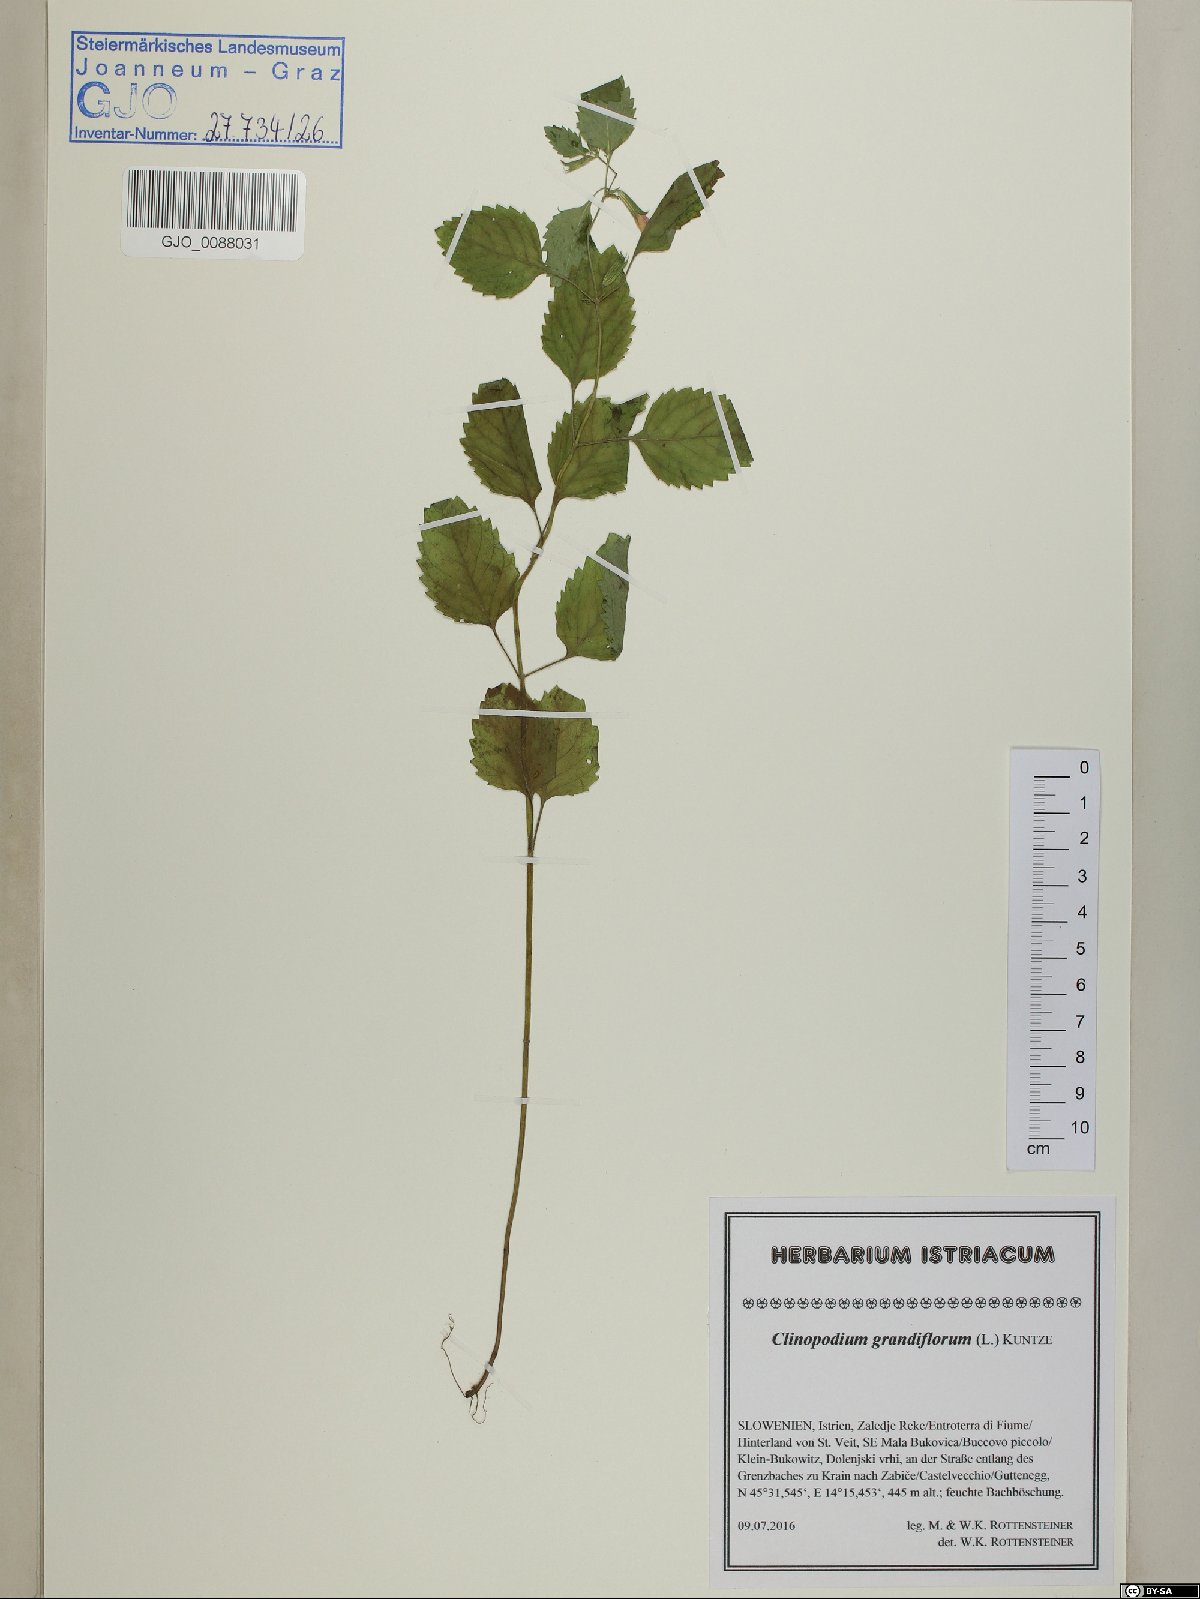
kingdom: Plantae
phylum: Tracheophyta
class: Magnoliopsida
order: Lamiales
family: Lamiaceae
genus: Clinopodium
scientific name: Clinopodium grandiflorum
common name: Greater calamint
